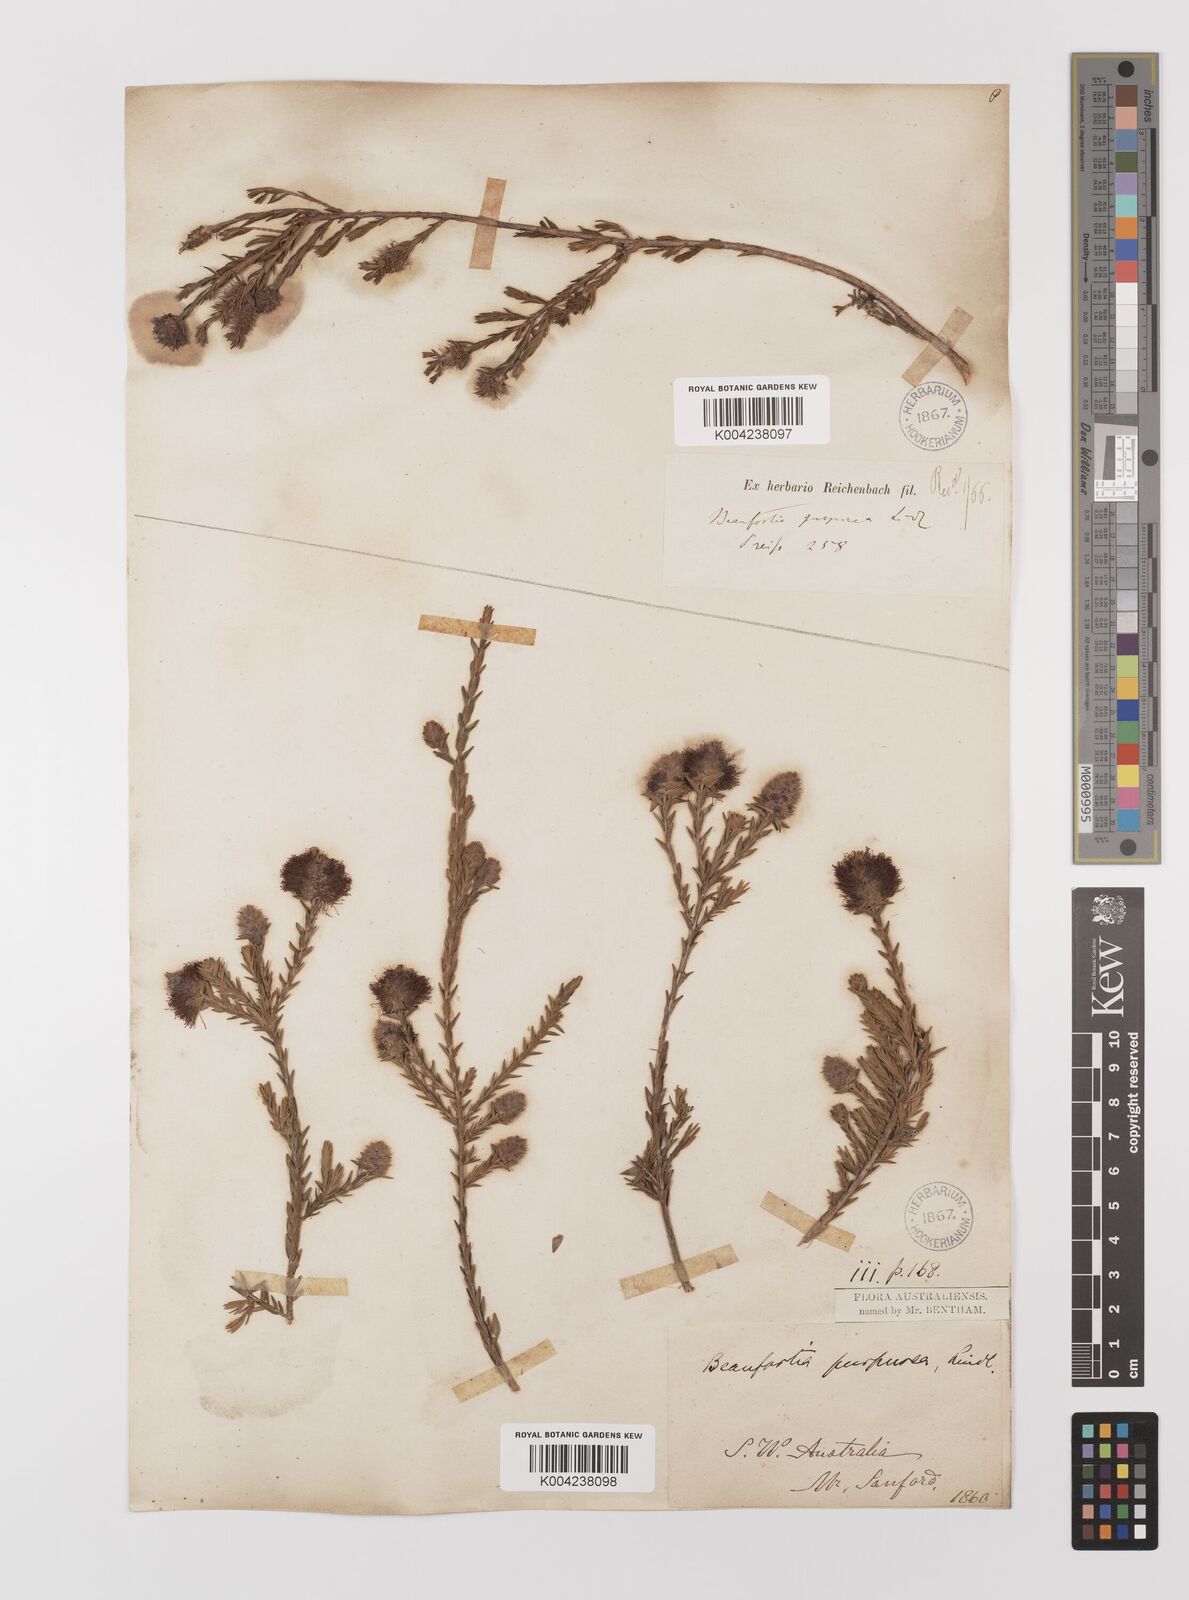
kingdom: Plantae
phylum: Tracheophyta
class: Magnoliopsida
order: Myrtales
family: Myrtaceae
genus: Melaleuca
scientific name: Melaleuca purpurea
